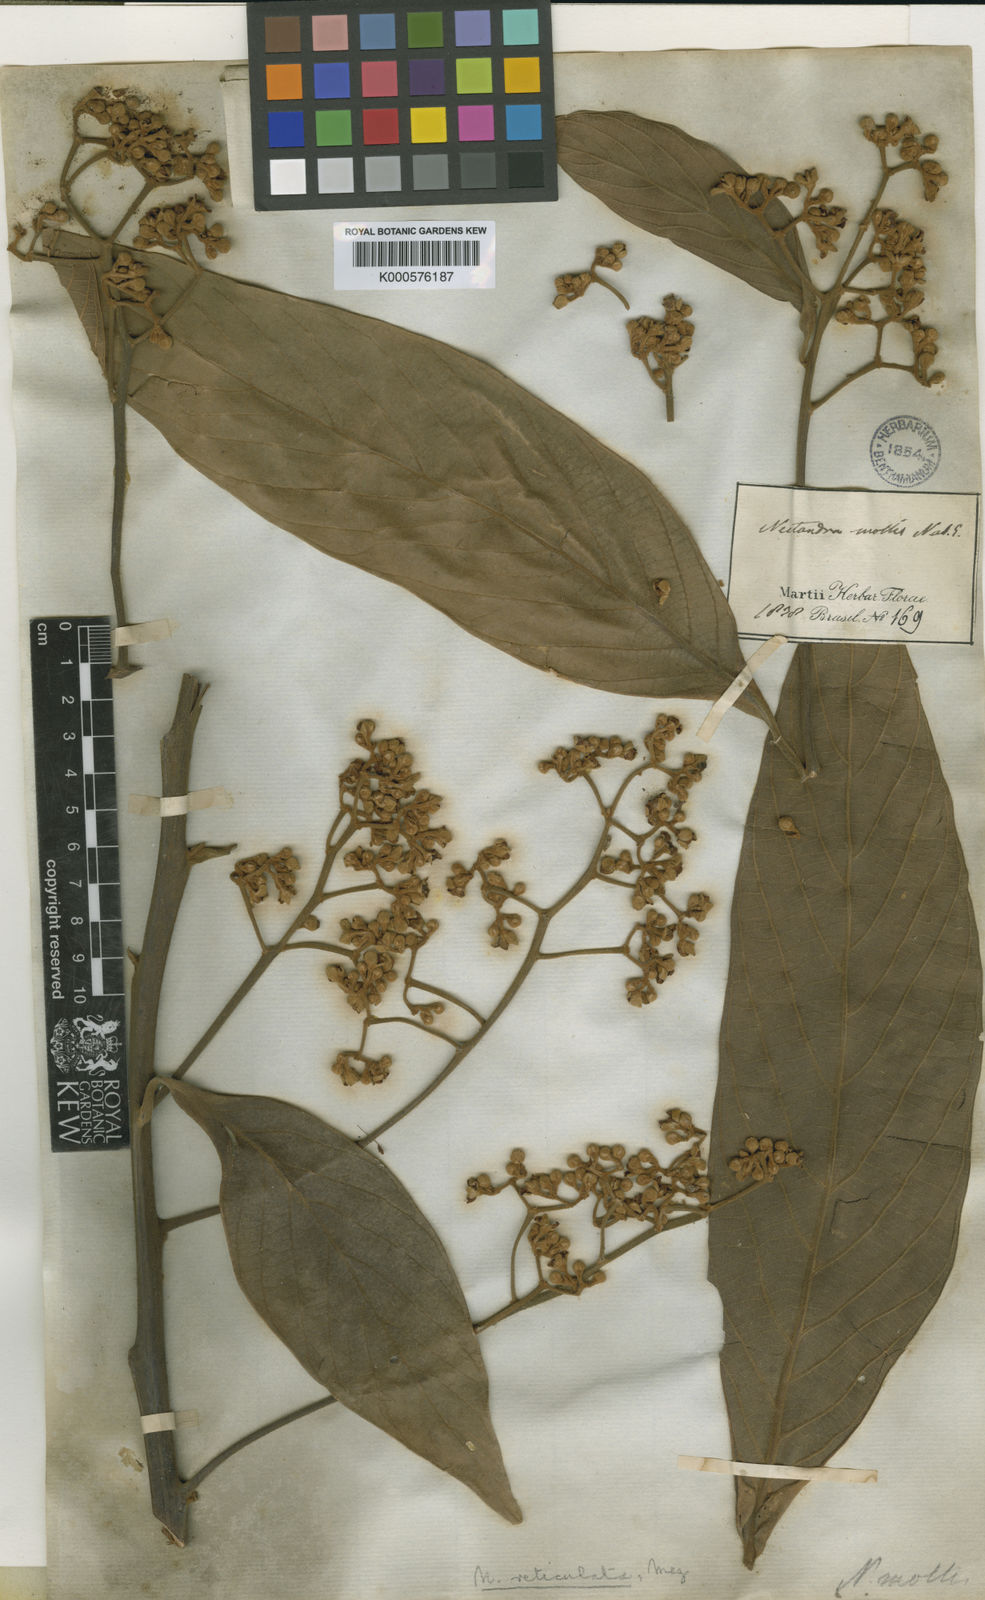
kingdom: Plantae
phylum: Tracheophyta
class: Magnoliopsida
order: Laurales
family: Lauraceae
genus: Nectandra
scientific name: Nectandra villosa
